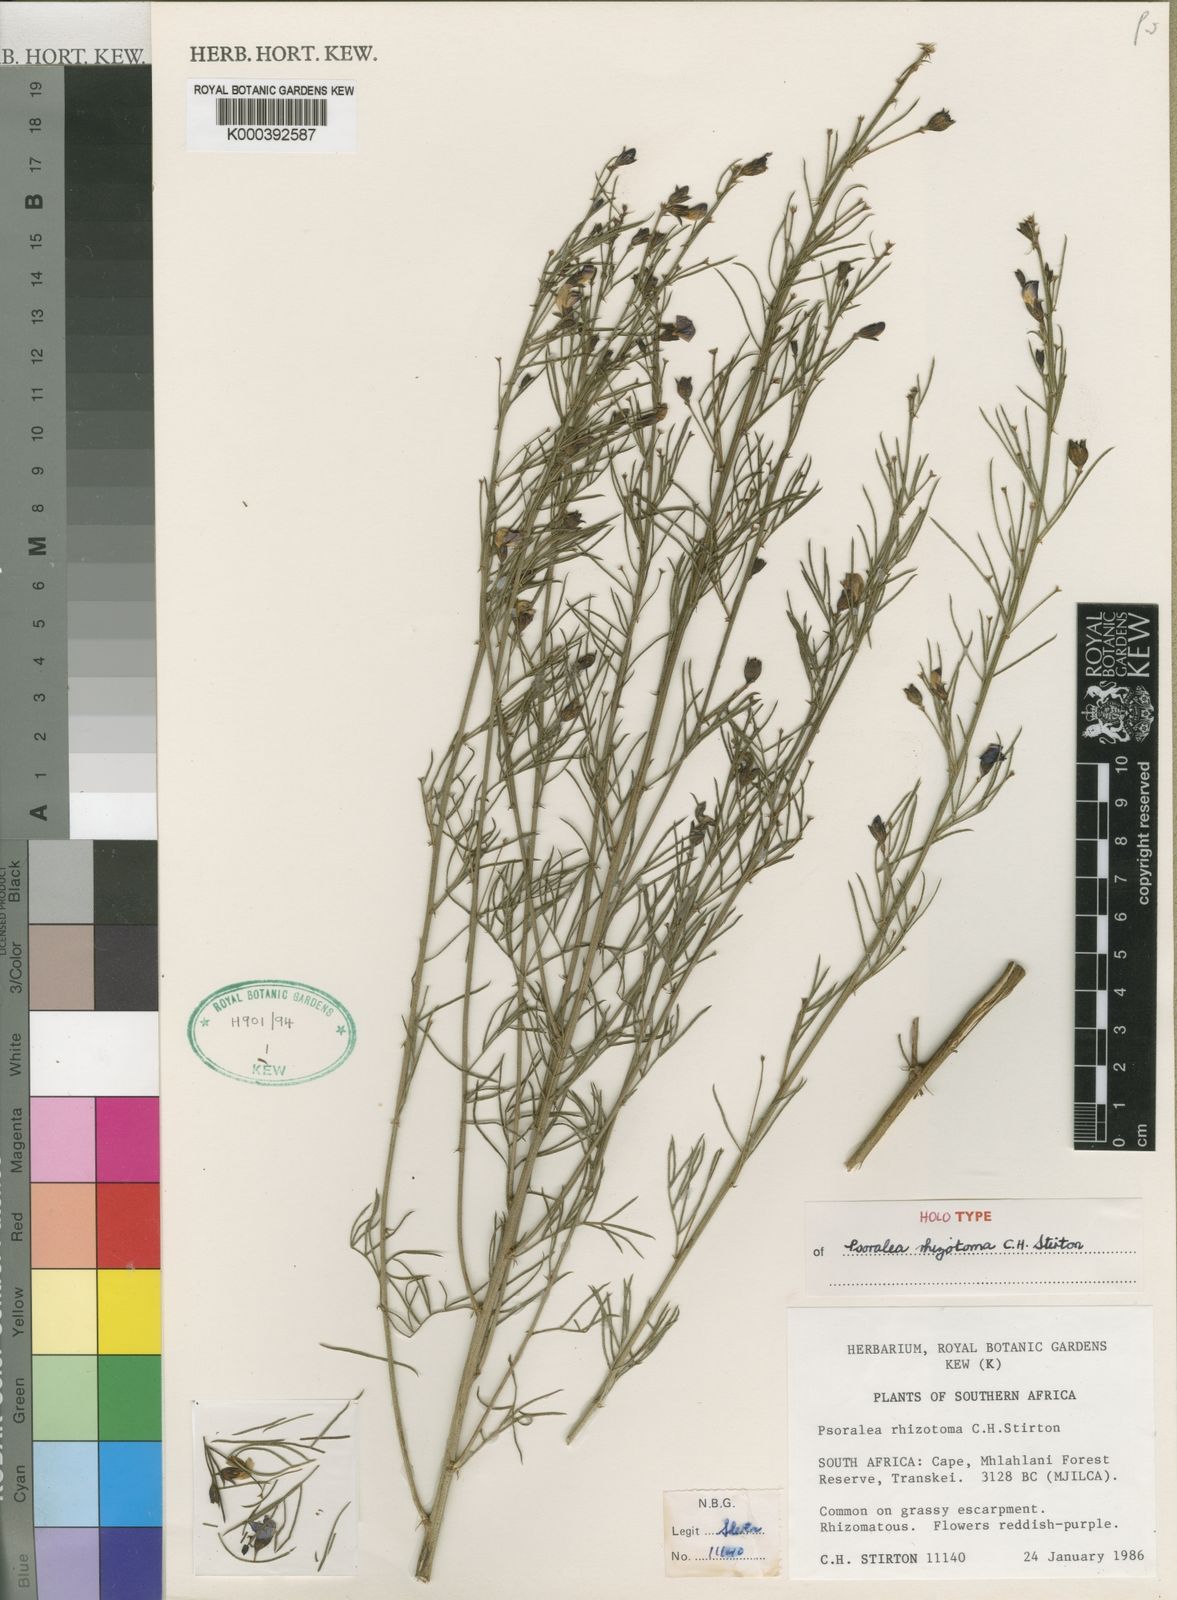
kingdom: Plantae
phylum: Tracheophyta
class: Magnoliopsida
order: Fabales
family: Fabaceae
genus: Psoralea
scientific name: Psoralea
